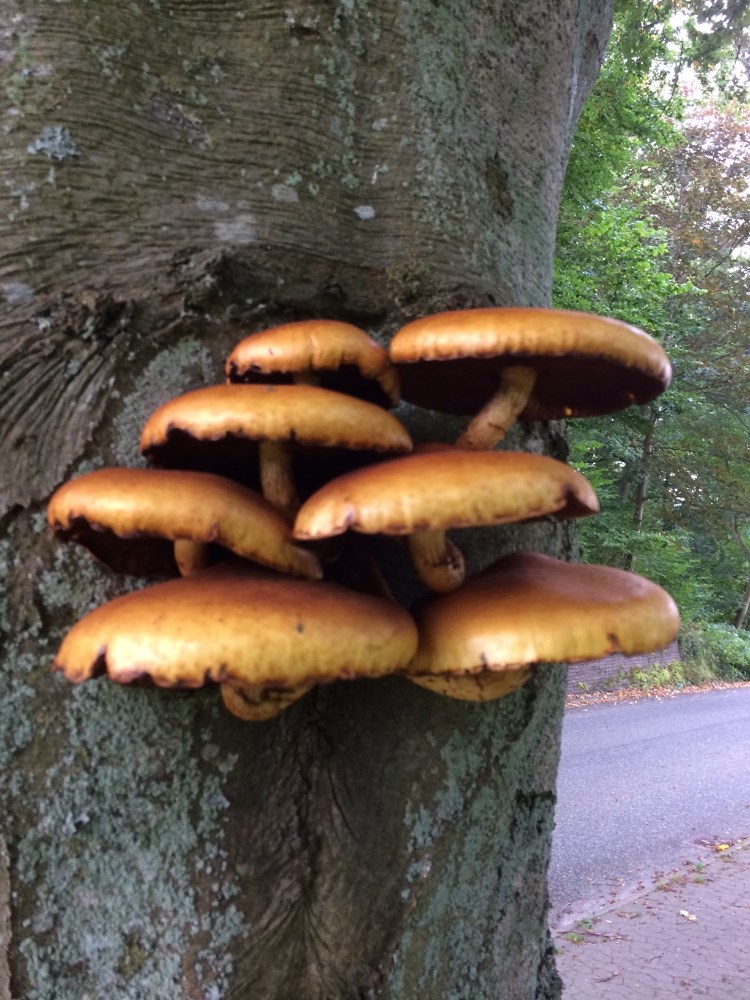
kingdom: Fungi
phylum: Basidiomycota
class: Agaricomycetes
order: Agaricales
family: Strophariaceae
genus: Pholiota
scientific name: Pholiota adiposa
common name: højtsiddende skælhat
